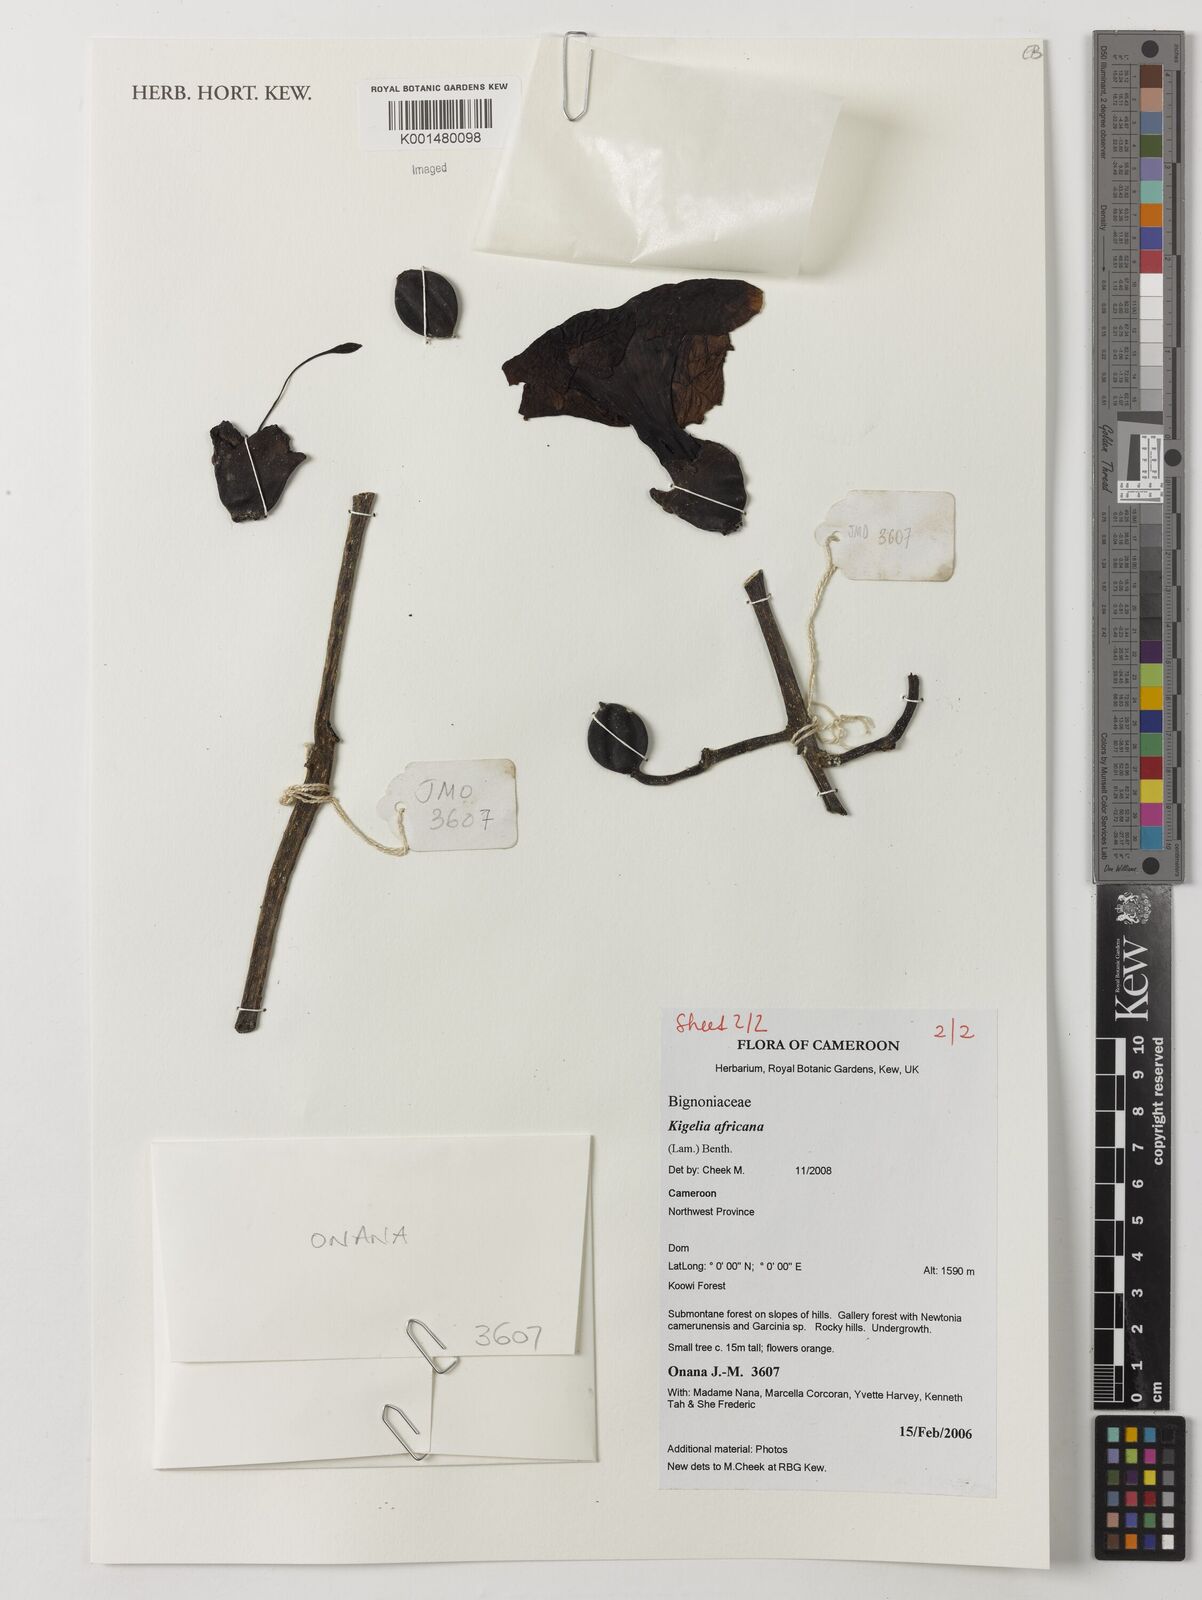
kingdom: Plantae
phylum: Tracheophyta
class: Magnoliopsida
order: Lamiales
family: Bignoniaceae
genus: Kigelia
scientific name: Kigelia africana
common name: Sausage tree
